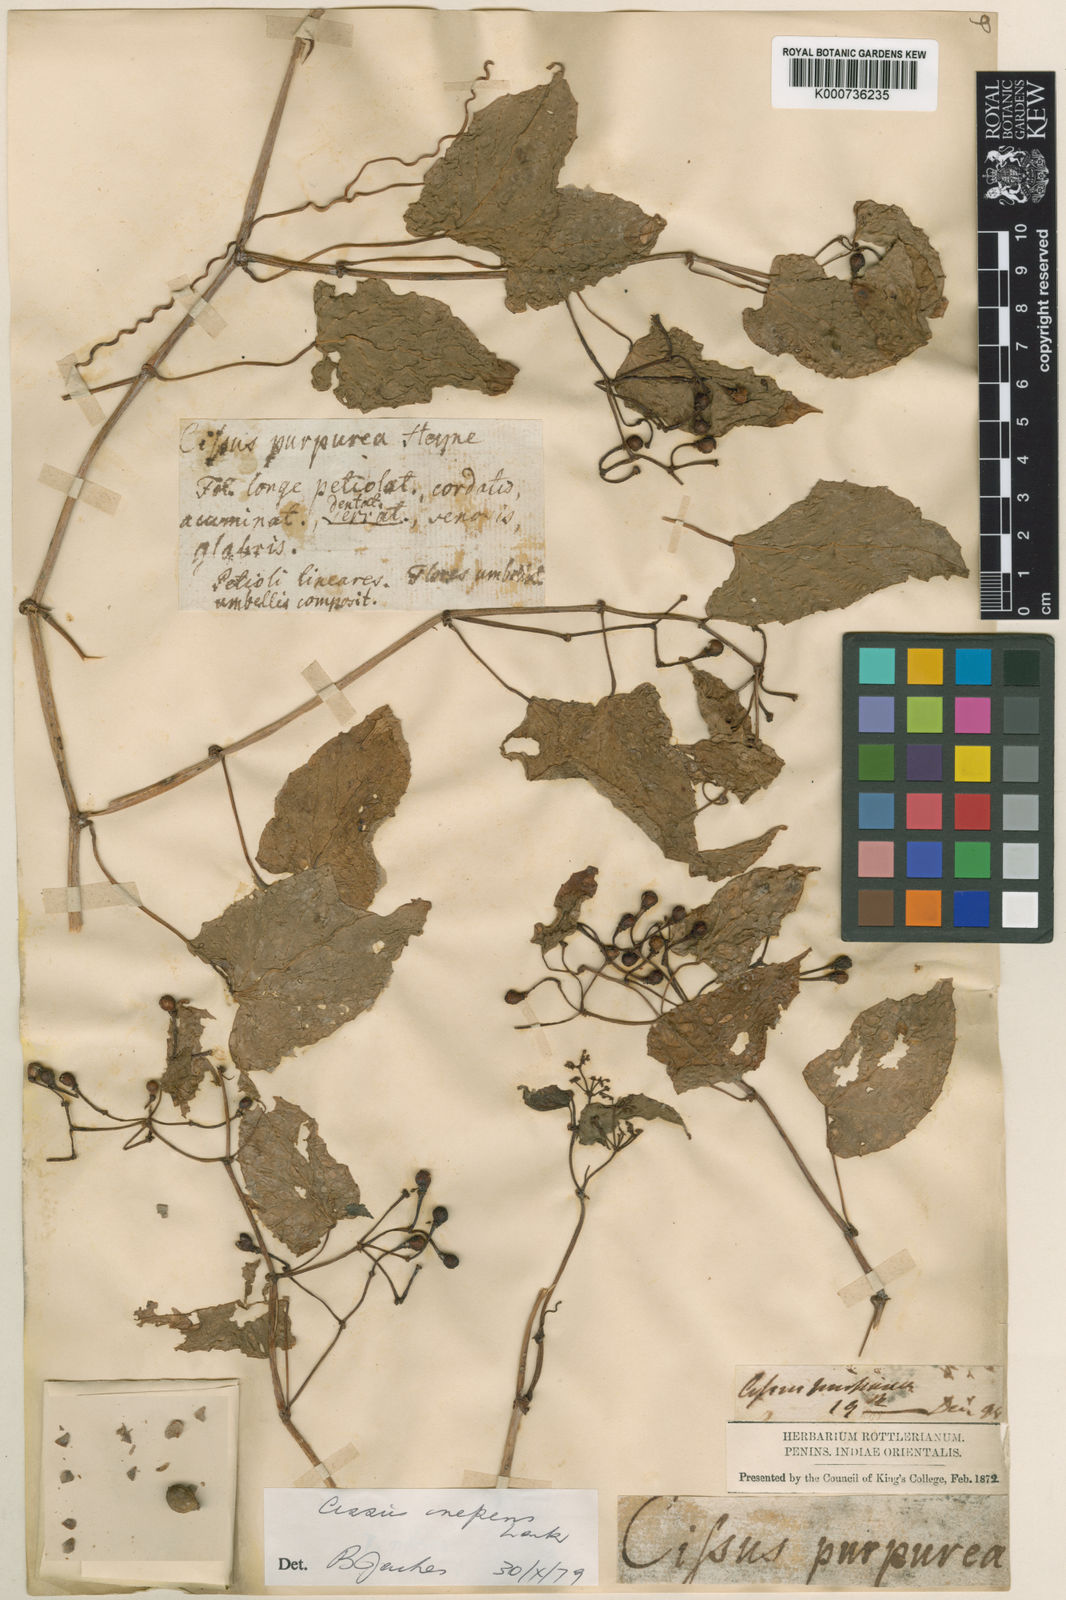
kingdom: Plantae
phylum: Tracheophyta
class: Magnoliopsida
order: Vitales
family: Vitaceae
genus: Cissus
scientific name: Cissus repens
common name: Cissus
